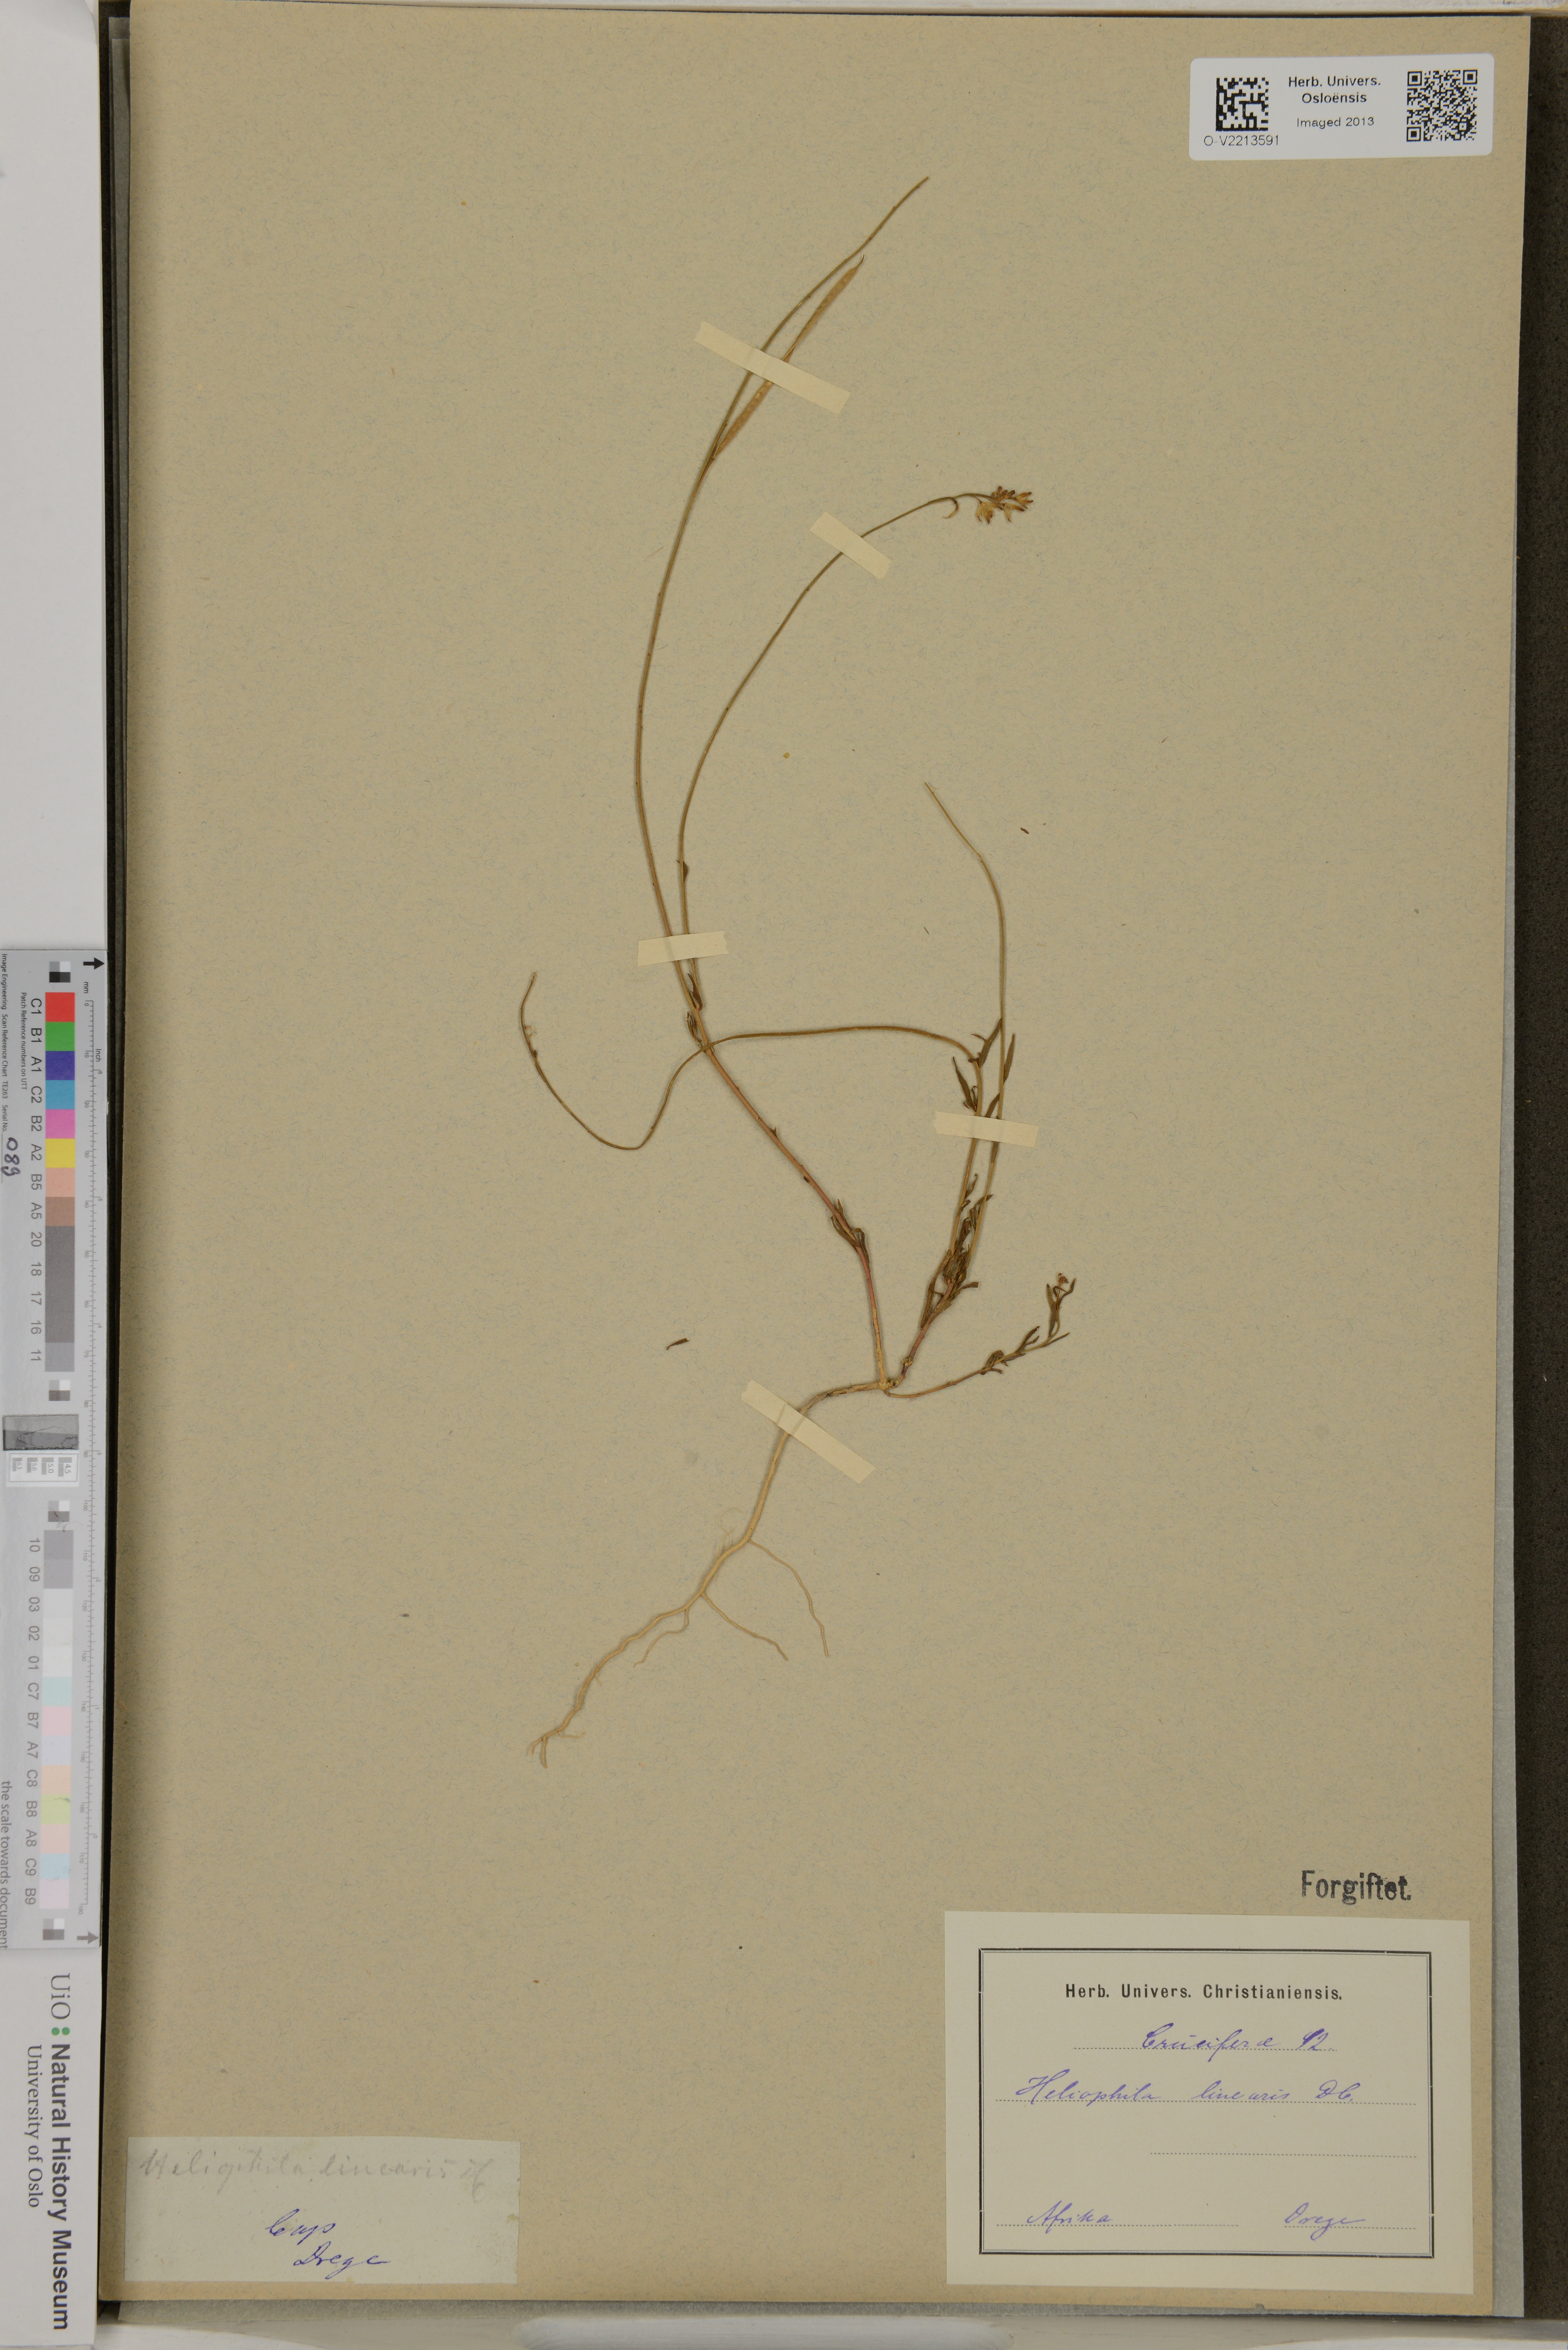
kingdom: Plantae
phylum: Tracheophyta
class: Magnoliopsida
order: Brassicales
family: Brassicaceae
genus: Heliophila
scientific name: Heliophila linearis
